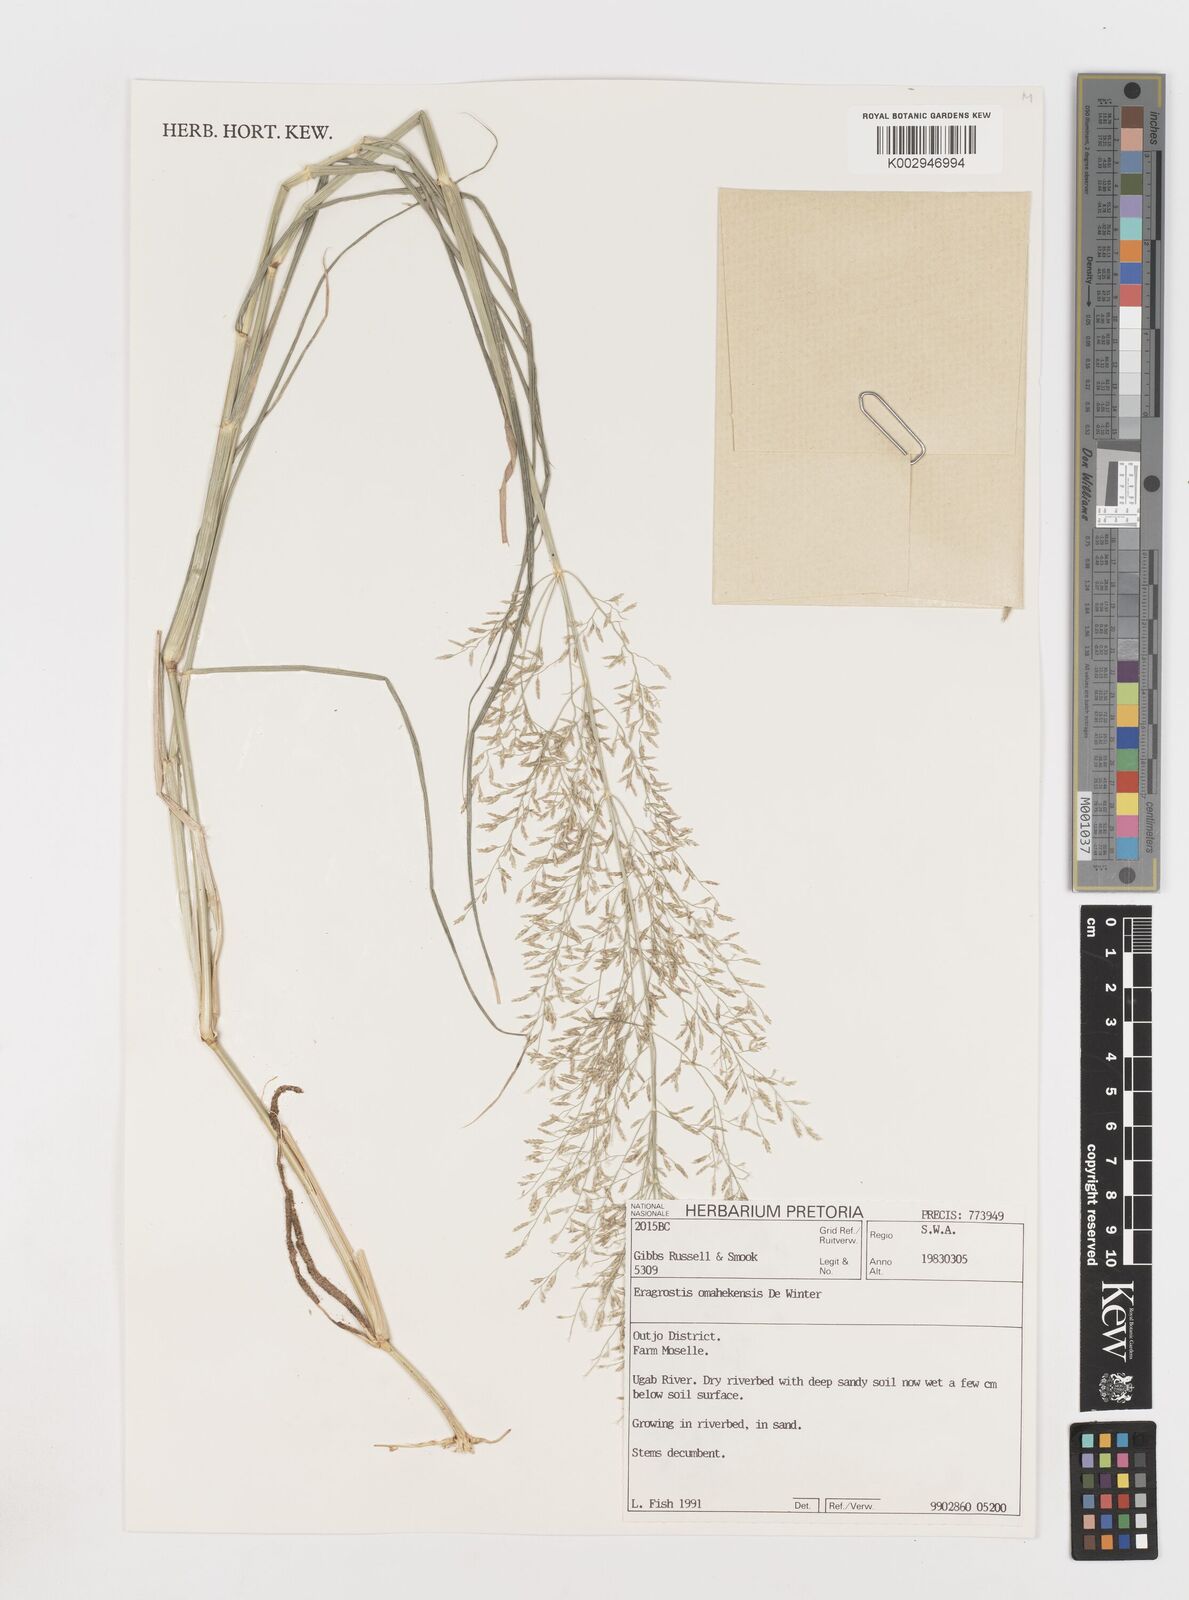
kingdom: Plantae
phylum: Tracheophyta
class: Liliopsida
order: Poales
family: Poaceae
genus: Eragrostis
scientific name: Eragrostis omahekensis
